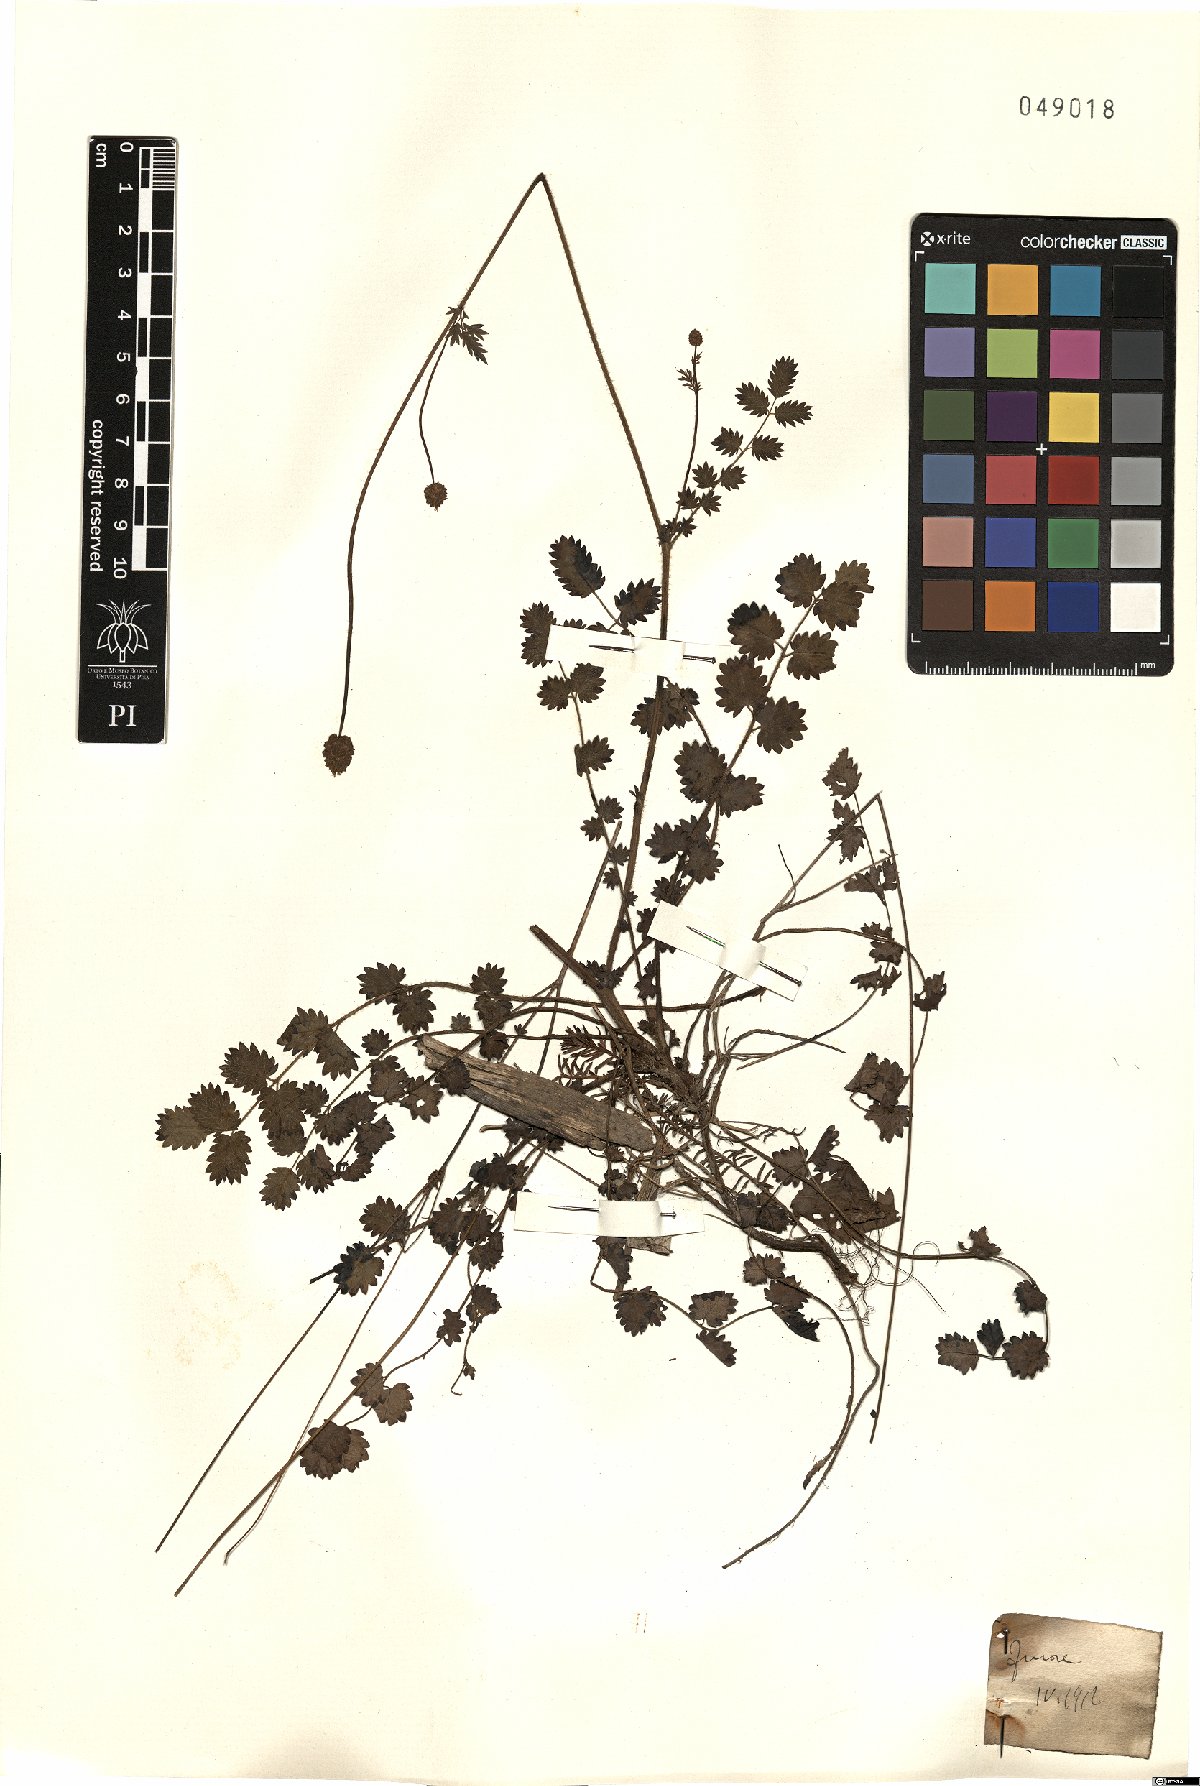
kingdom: Plantae
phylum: Tracheophyta
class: Magnoliopsida
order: Rosales
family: Rosaceae
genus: Poterium
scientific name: Poterium
